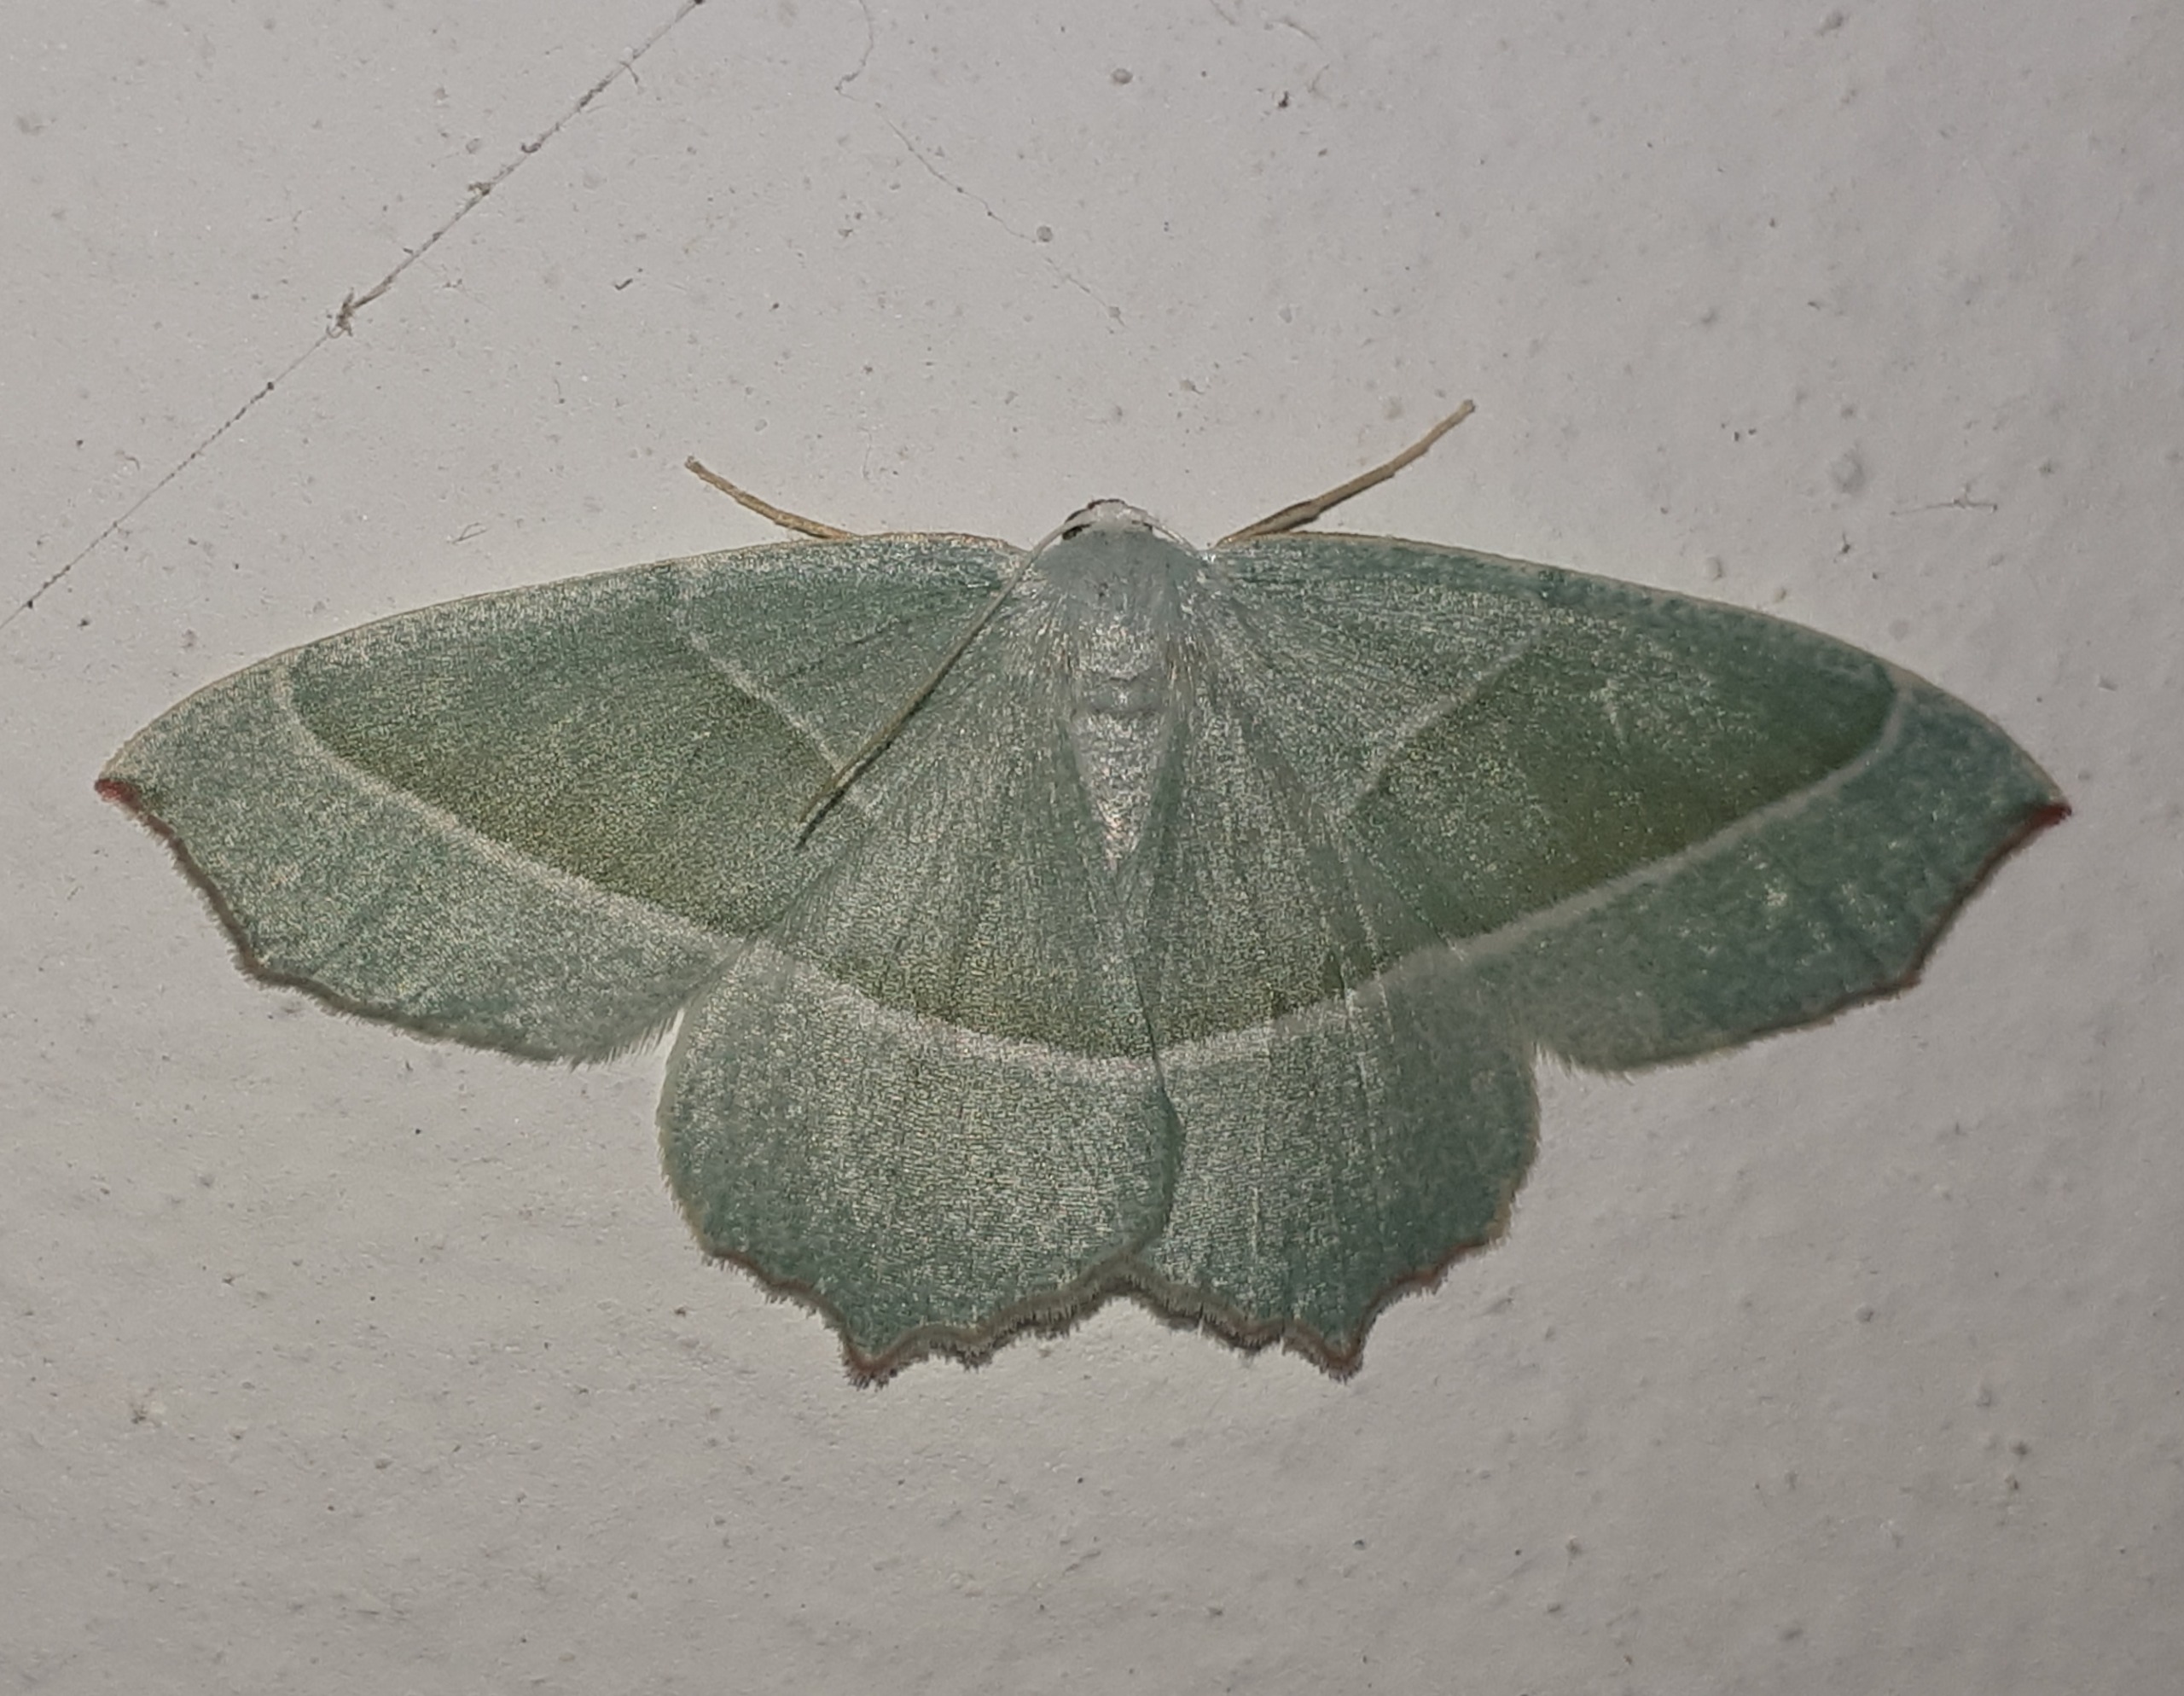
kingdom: Animalia
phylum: Arthropoda
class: Insecta
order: Lepidoptera
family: Geometridae
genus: Campaea
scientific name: Campaea margaritaria
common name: Perlemåler
